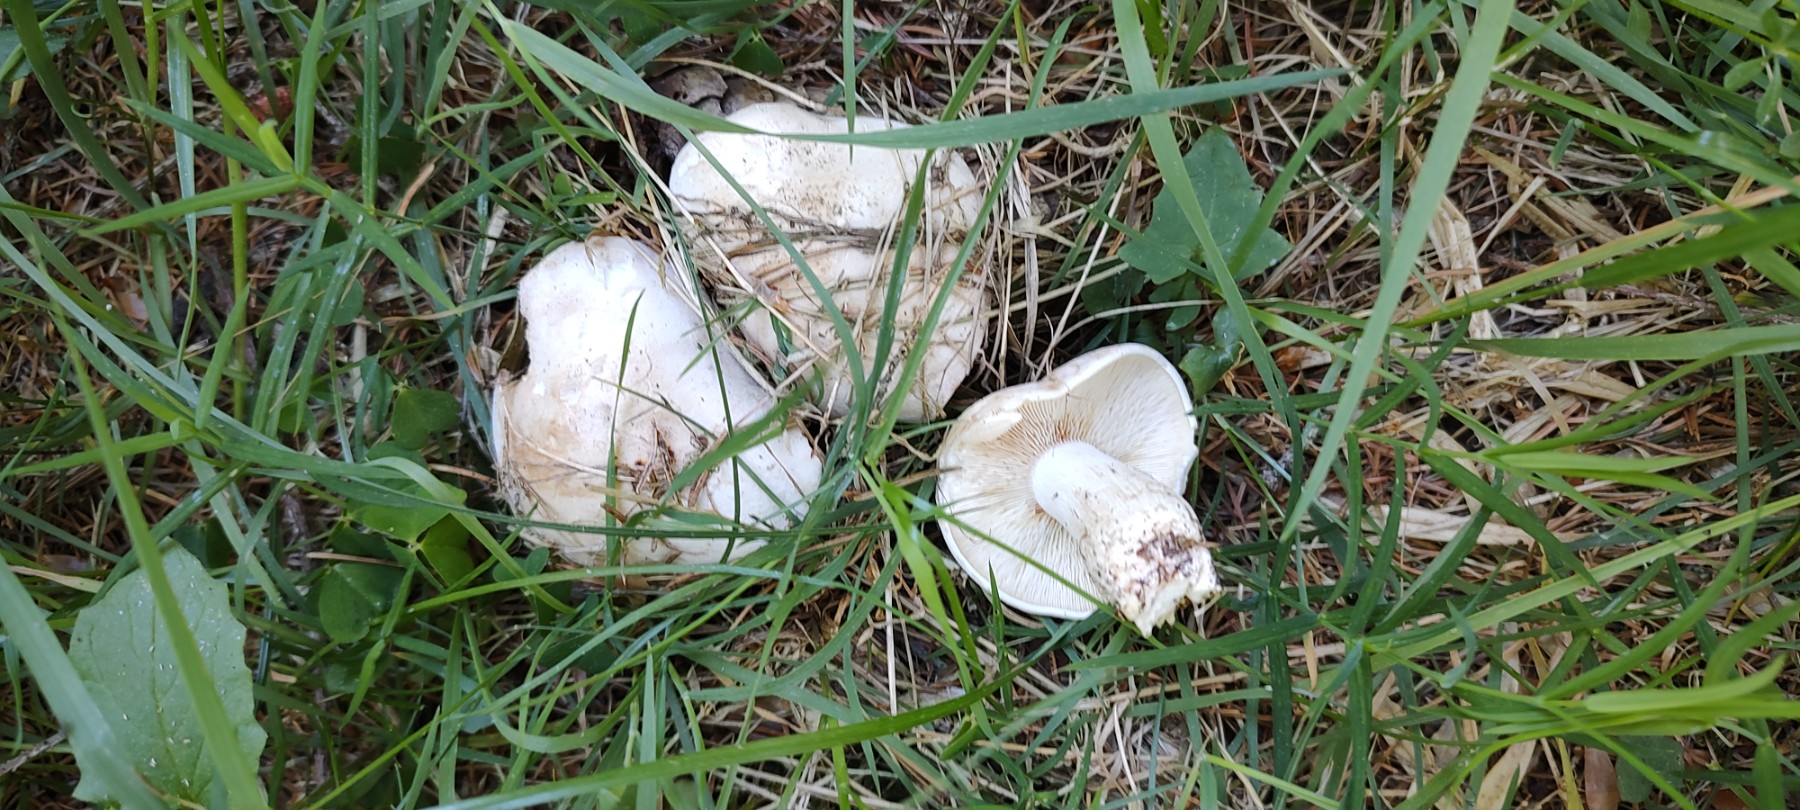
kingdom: Fungi
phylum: Basidiomycota
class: Agaricomycetes
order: Agaricales
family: Lyophyllaceae
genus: Calocybe
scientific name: Calocybe gambosa
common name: vårmusseron
